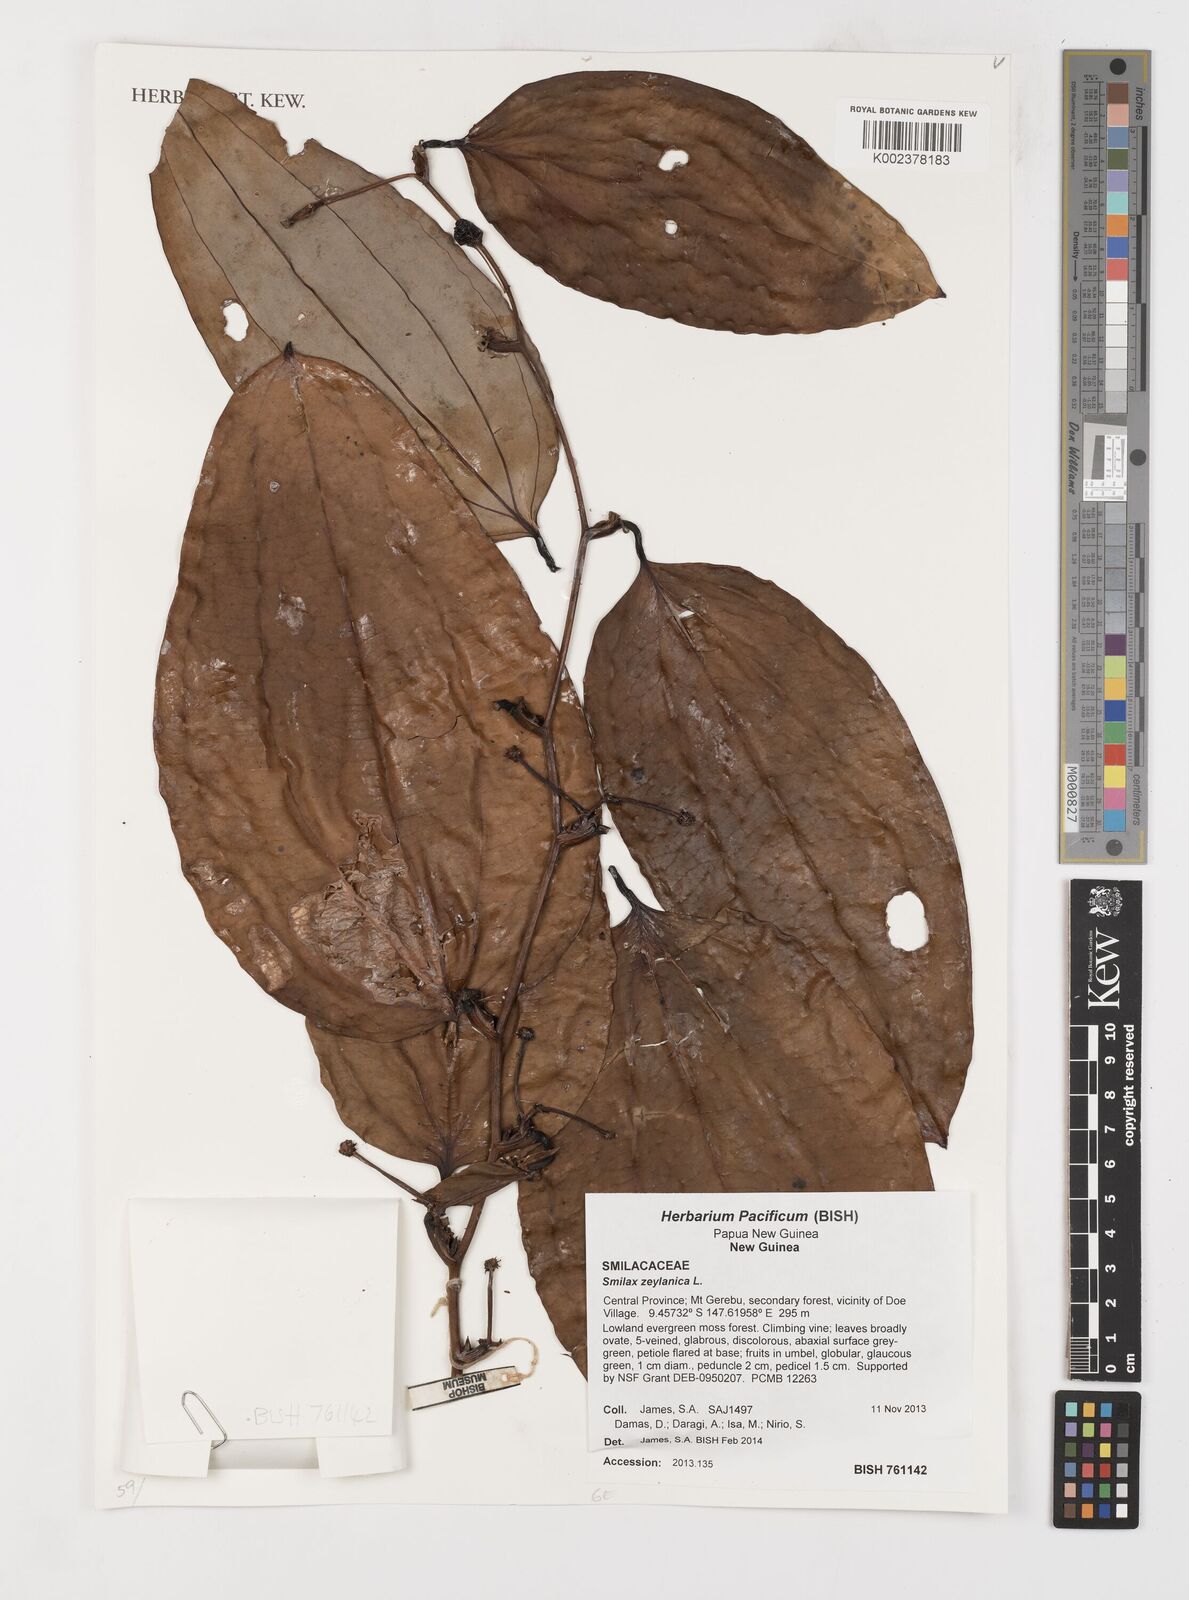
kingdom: Plantae
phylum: Tracheophyta
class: Liliopsida
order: Liliales
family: Smilacaceae
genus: Smilax
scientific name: Smilax zeylanica
